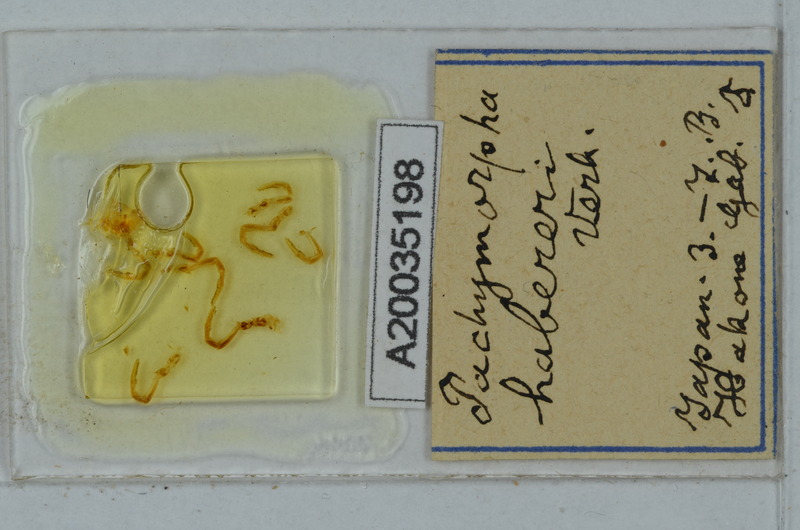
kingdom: Animalia
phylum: Arthropoda
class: Insecta
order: Phasmida
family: Phasmatidae
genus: Pachymorpha
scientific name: Pachymorpha
